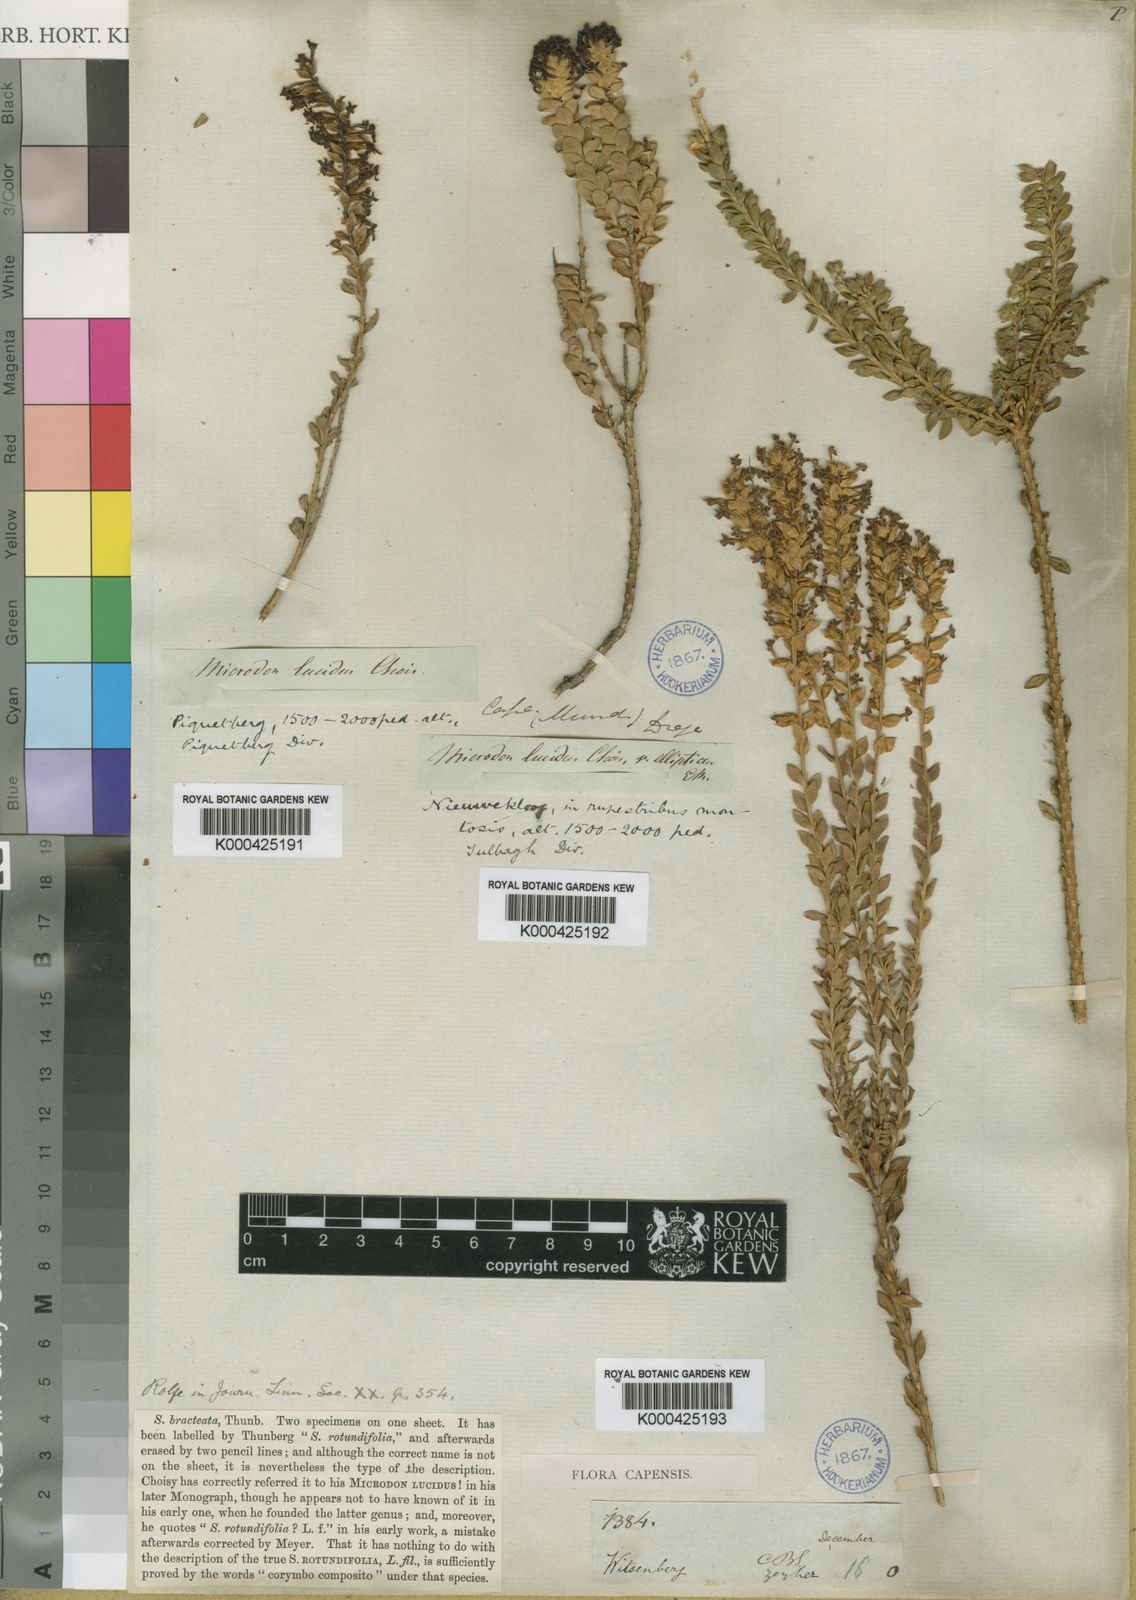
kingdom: Plantae
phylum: Tracheophyta
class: Magnoliopsida
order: Lamiales
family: Scrophulariaceae
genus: Microdon
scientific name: Microdon parviflorus
